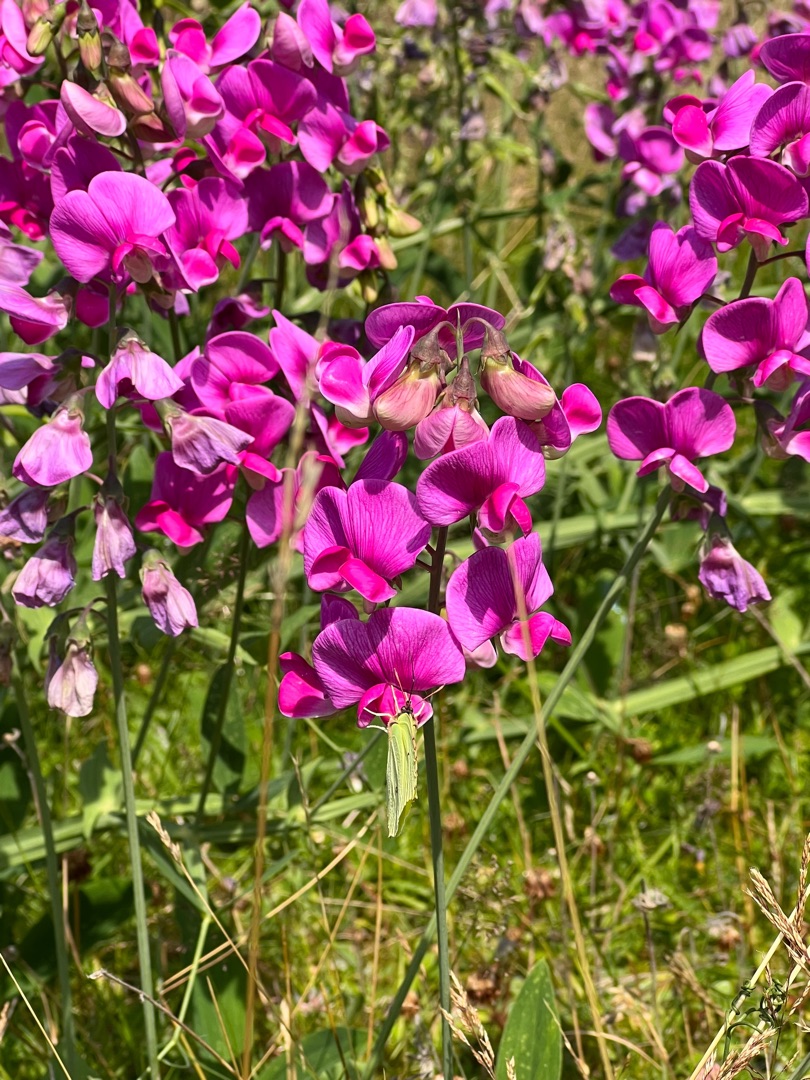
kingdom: Animalia
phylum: Arthropoda
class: Insecta
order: Lepidoptera
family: Pieridae
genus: Gonepteryx
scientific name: Gonepteryx rhamni
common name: Citronsommerfugl
